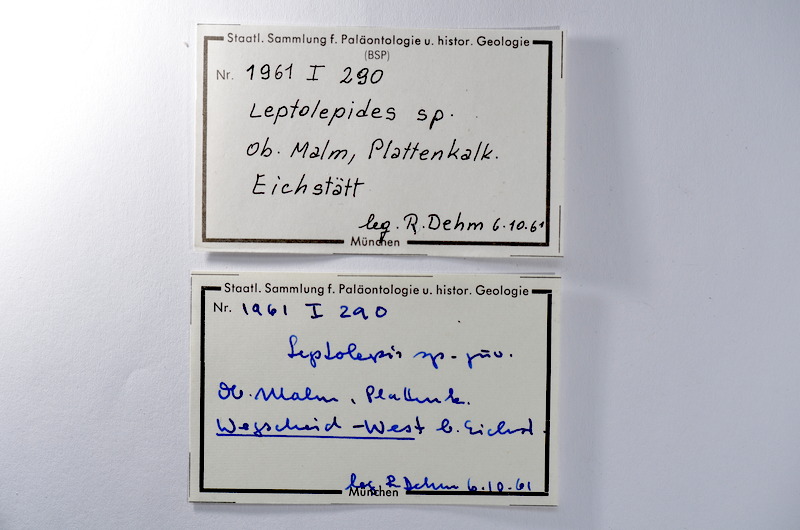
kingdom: Animalia
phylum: Chordata
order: Salmoniformes
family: Orthogonikleithridae
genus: Leptolepides
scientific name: Leptolepides
